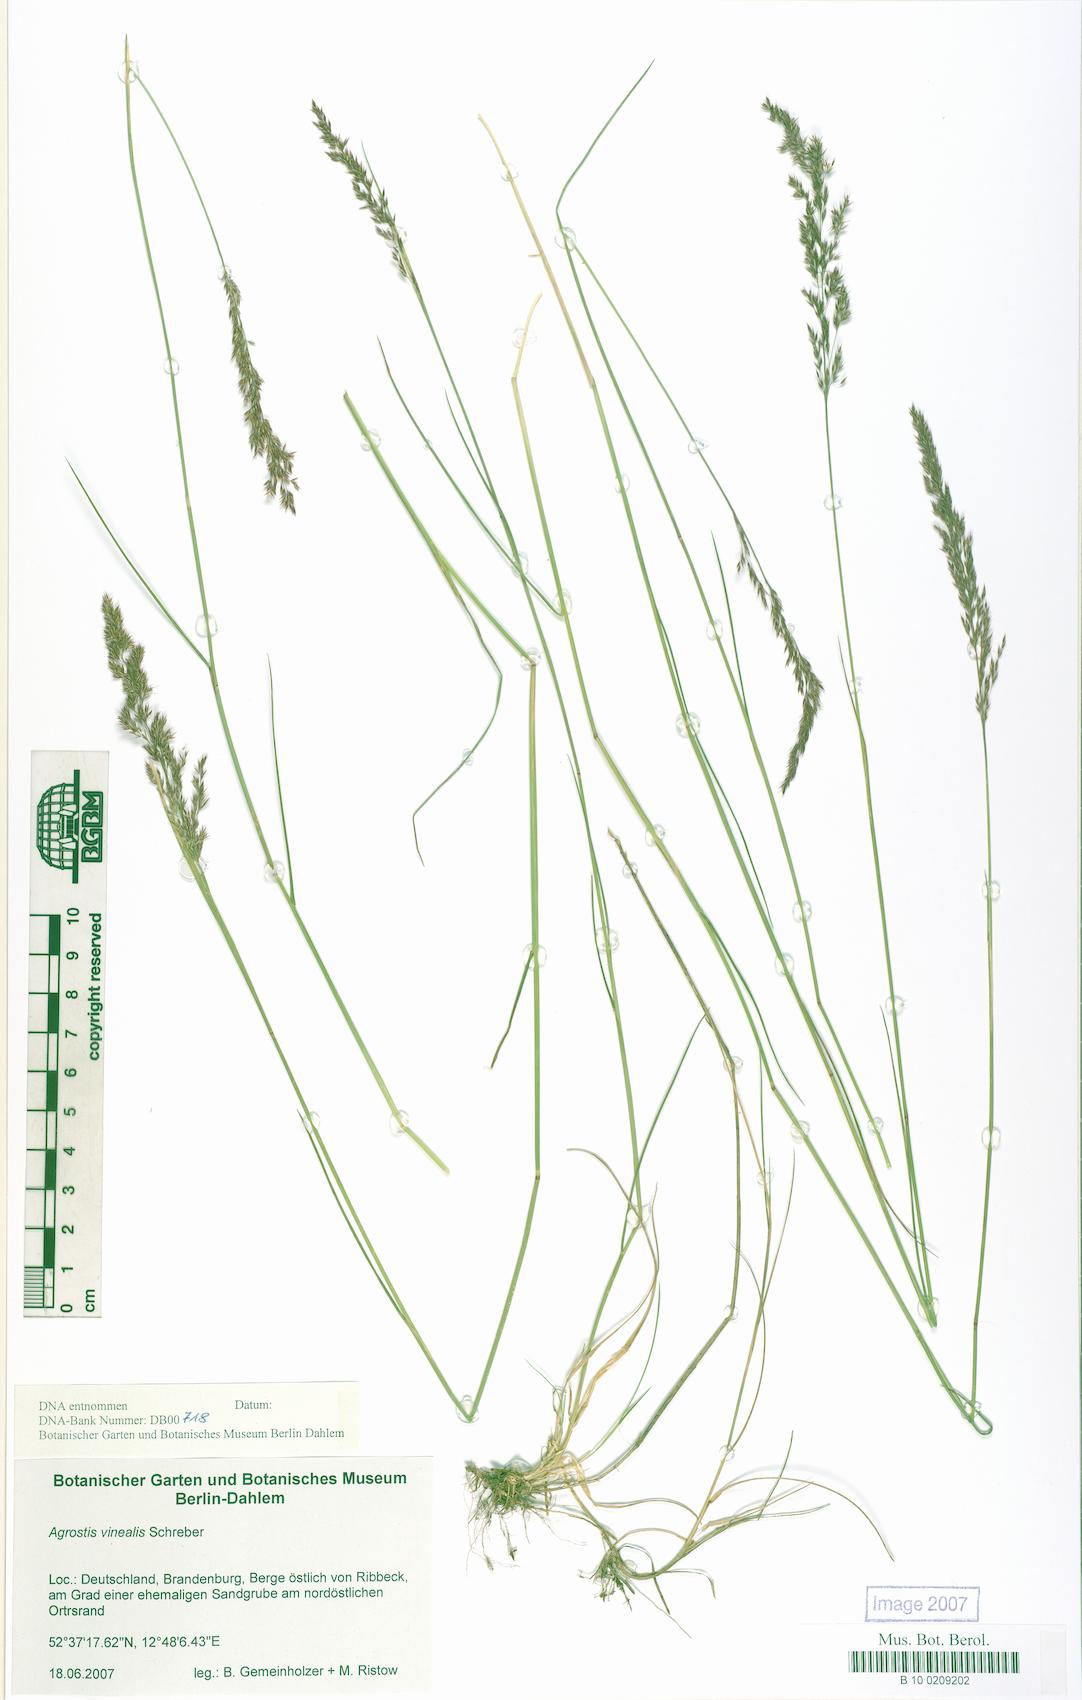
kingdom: Plantae
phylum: Tracheophyta
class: Liliopsida
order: Poales
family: Poaceae
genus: Agrostis
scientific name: Agrostis vinealis
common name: Brown bent
